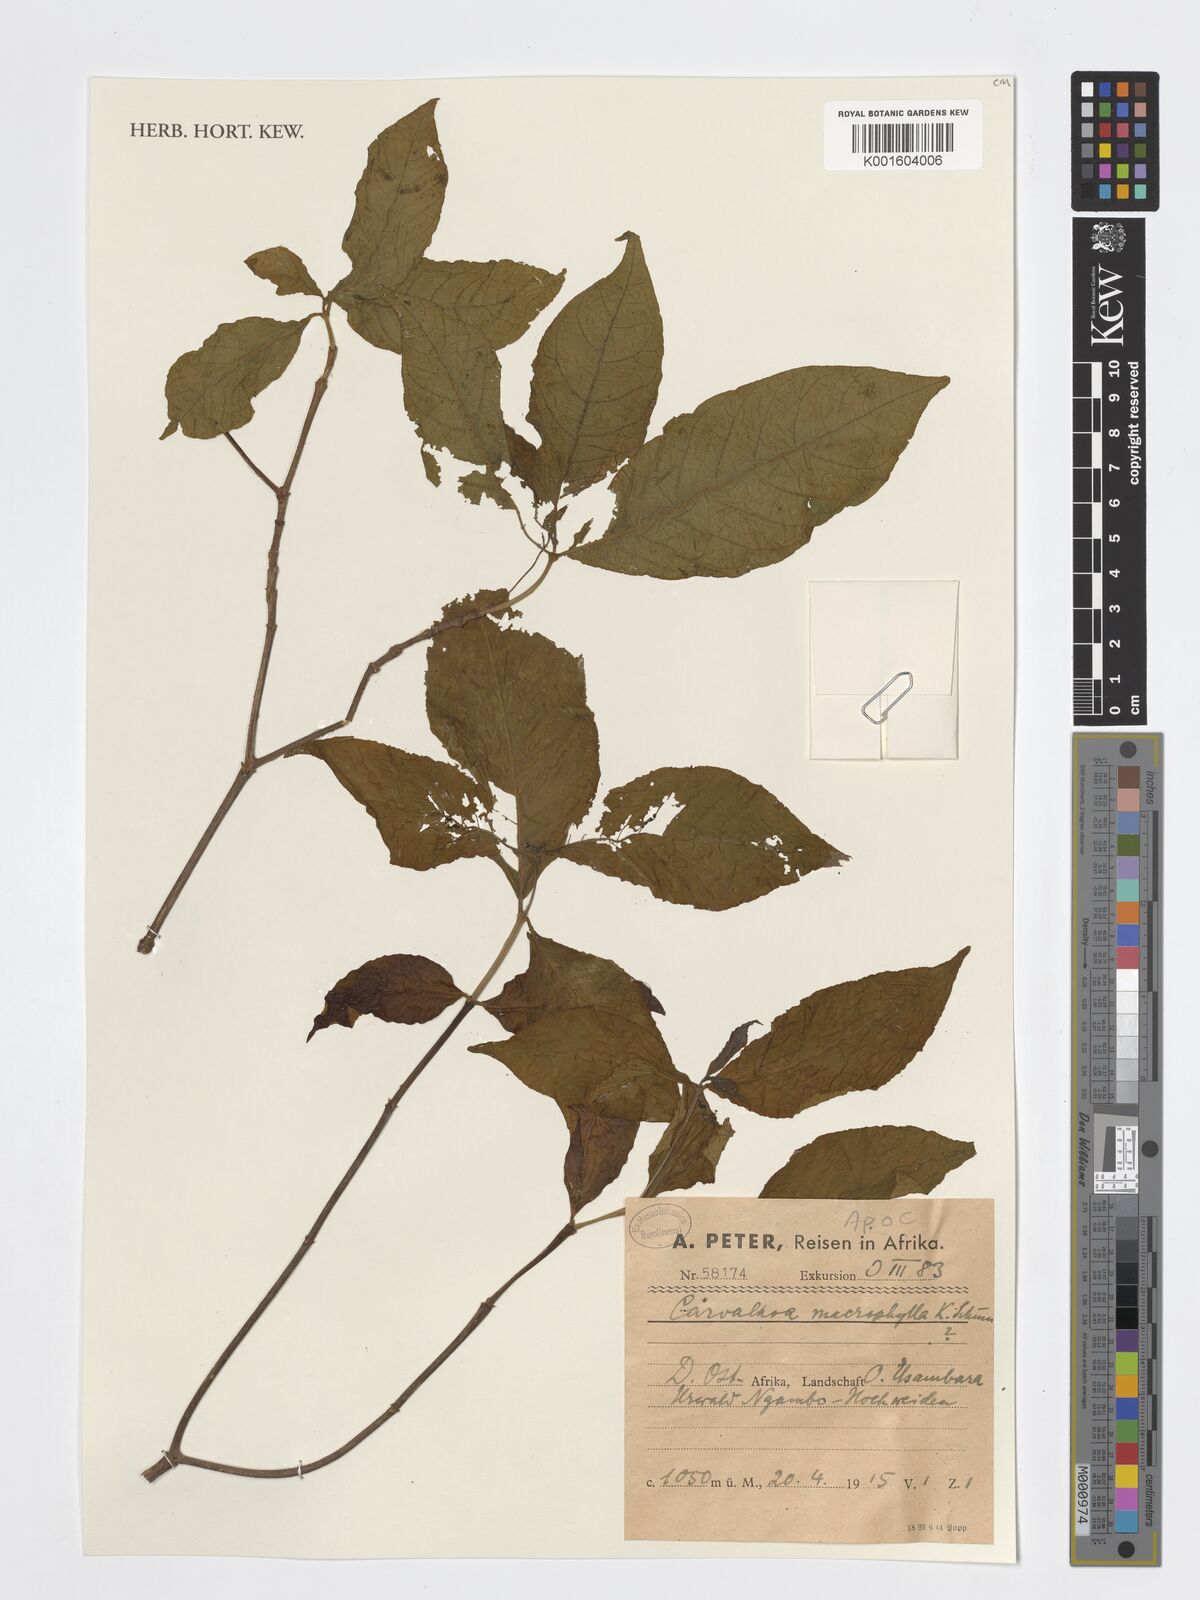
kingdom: Plantae
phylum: Tracheophyta
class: Magnoliopsida
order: Gentianales
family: Apocynaceae
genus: Carvalhoa
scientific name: Carvalhoa macrophylla
